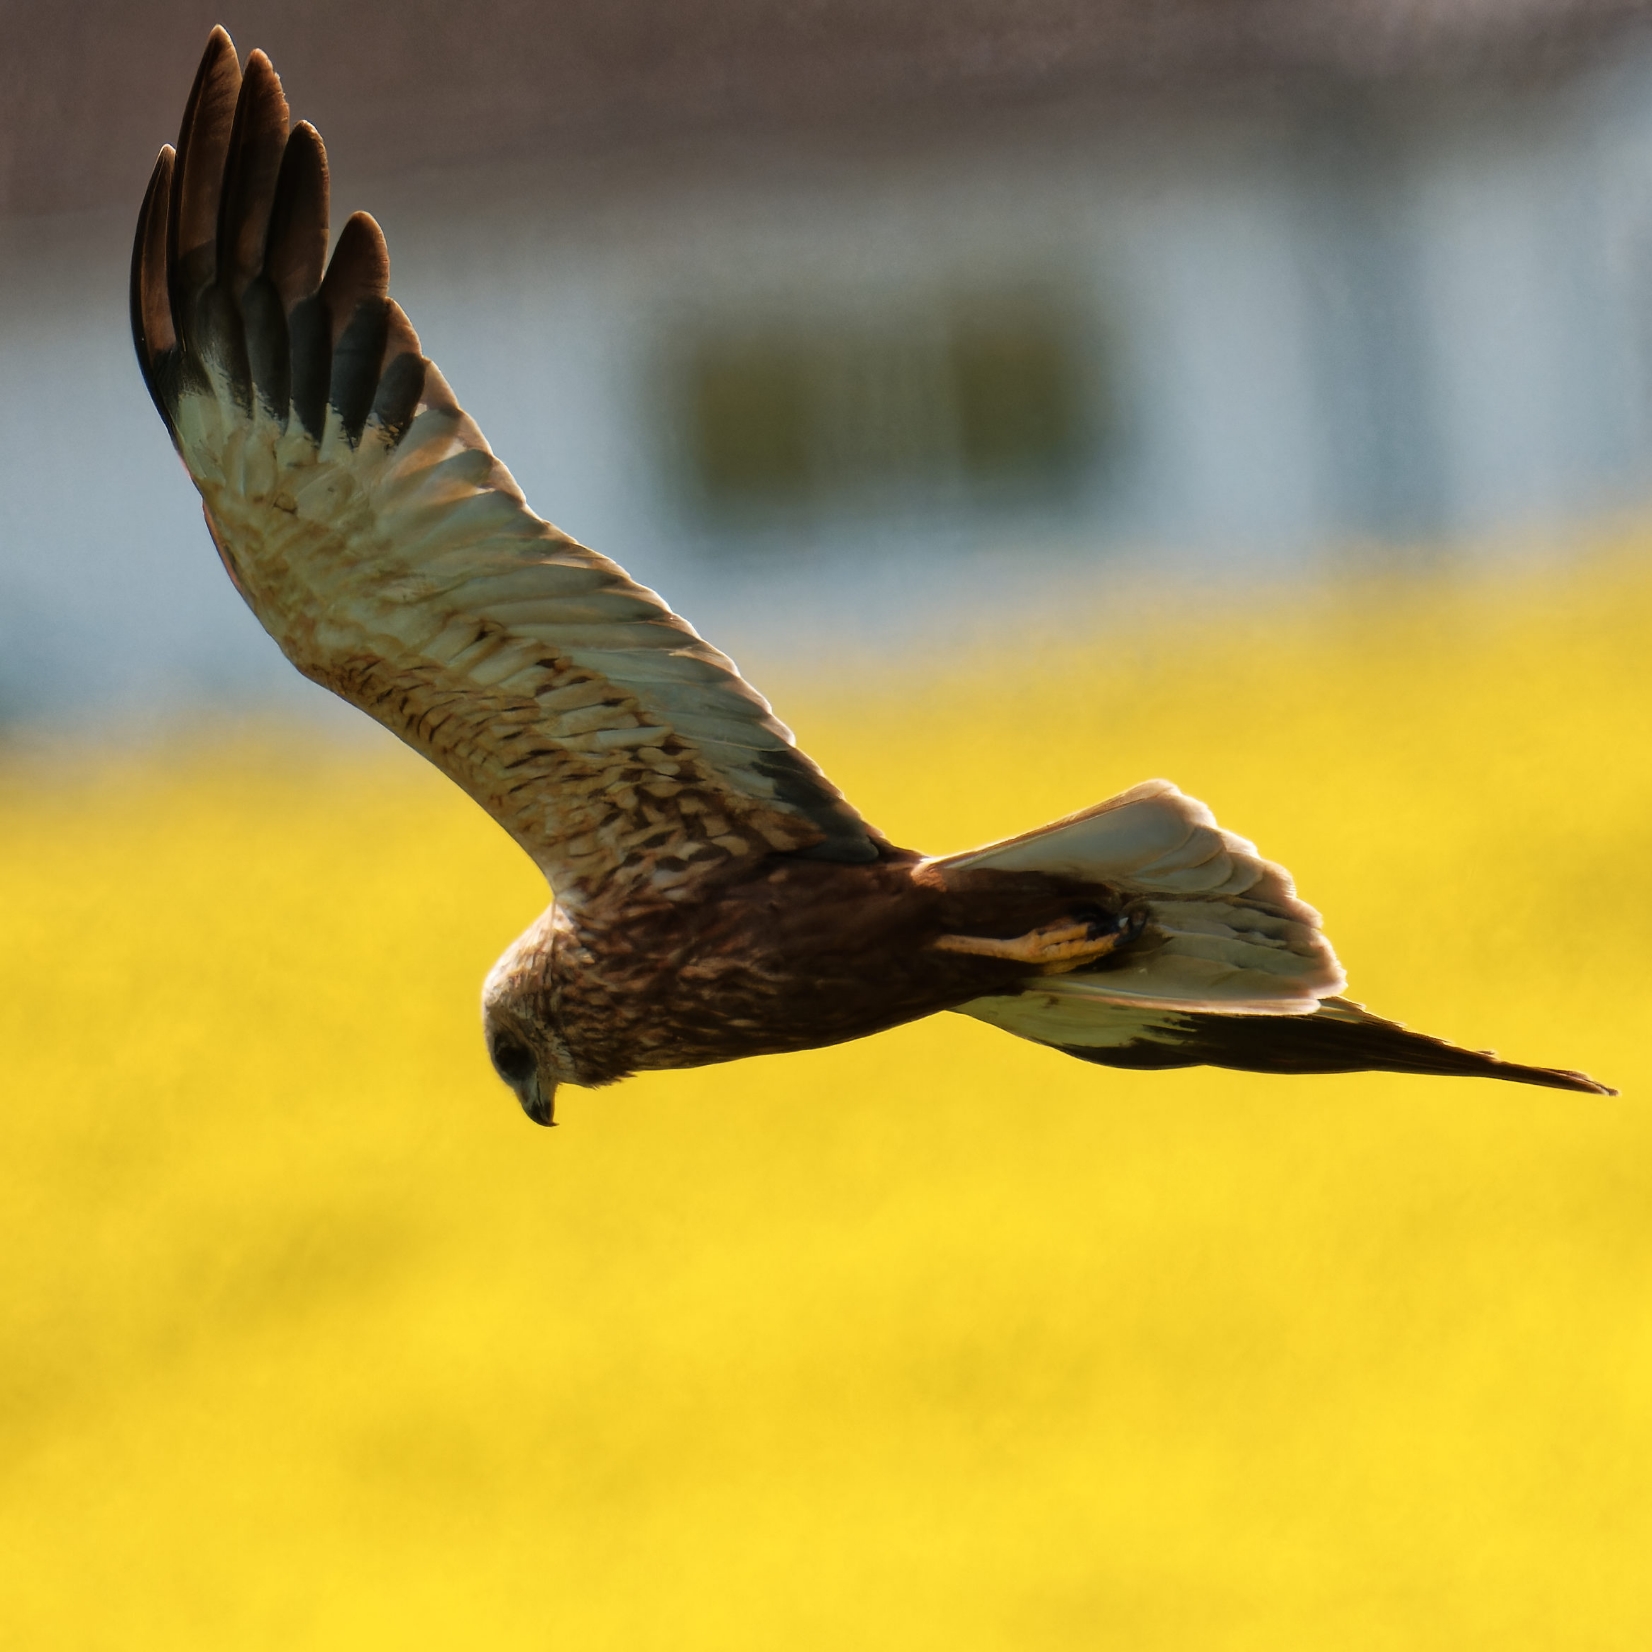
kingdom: Animalia
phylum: Chordata
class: Aves
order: Accipitriformes
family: Accipitridae
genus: Circus
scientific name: Circus aeruginosus
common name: Rørhøg
